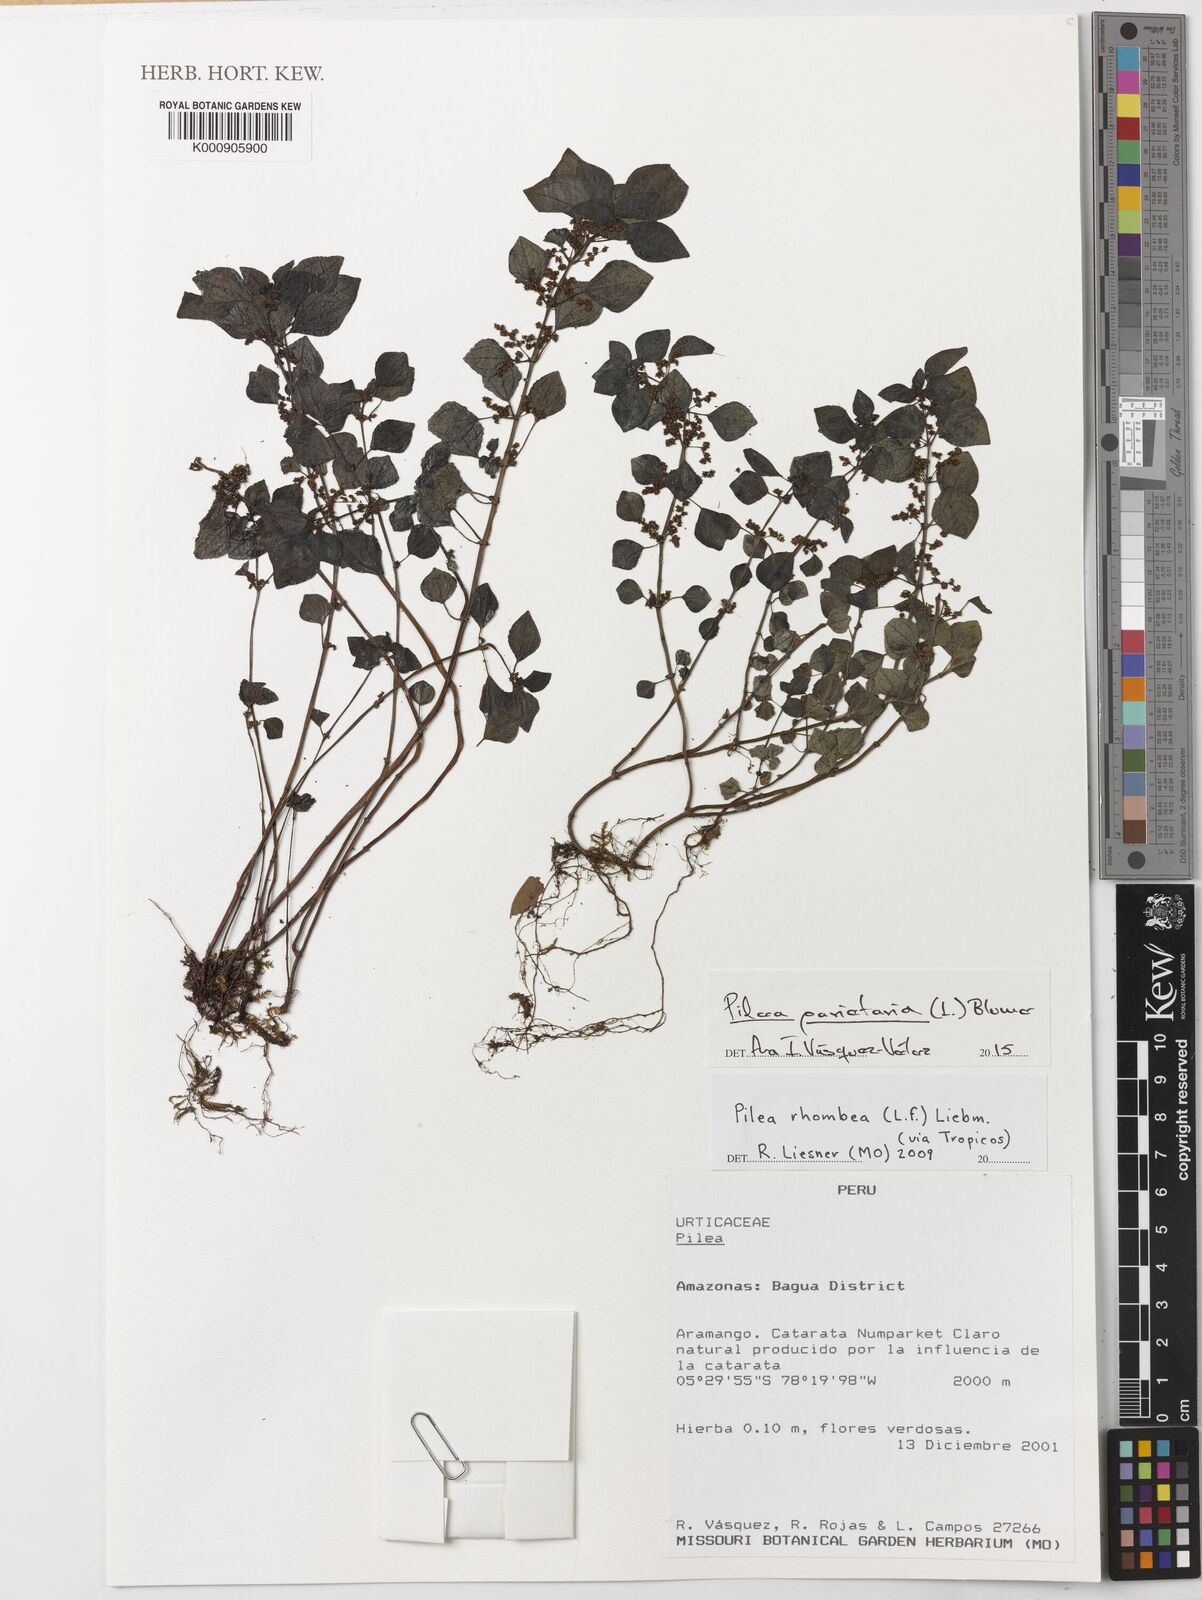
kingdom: Plantae
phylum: Tracheophyta
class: Magnoliopsida
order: Rosales
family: Urticaceae
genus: Pilea
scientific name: Pilea parietaria
